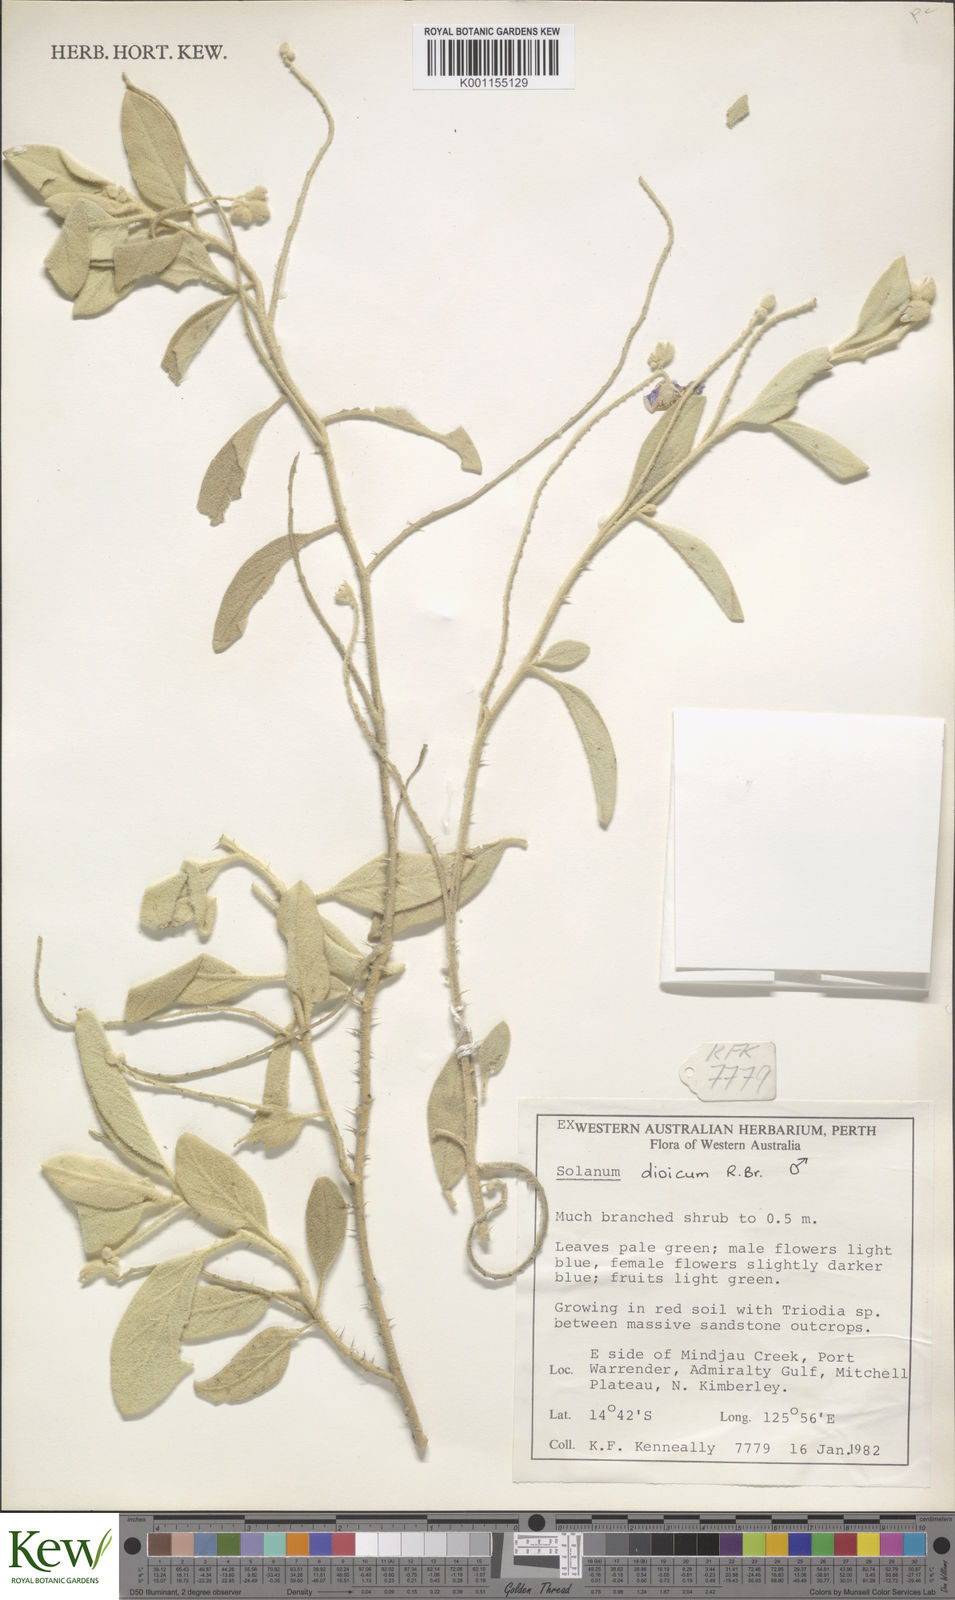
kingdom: Plantae
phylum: Tracheophyta
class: Magnoliopsida
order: Solanales
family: Solanaceae
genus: Solanum
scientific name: Solanum dioicum
